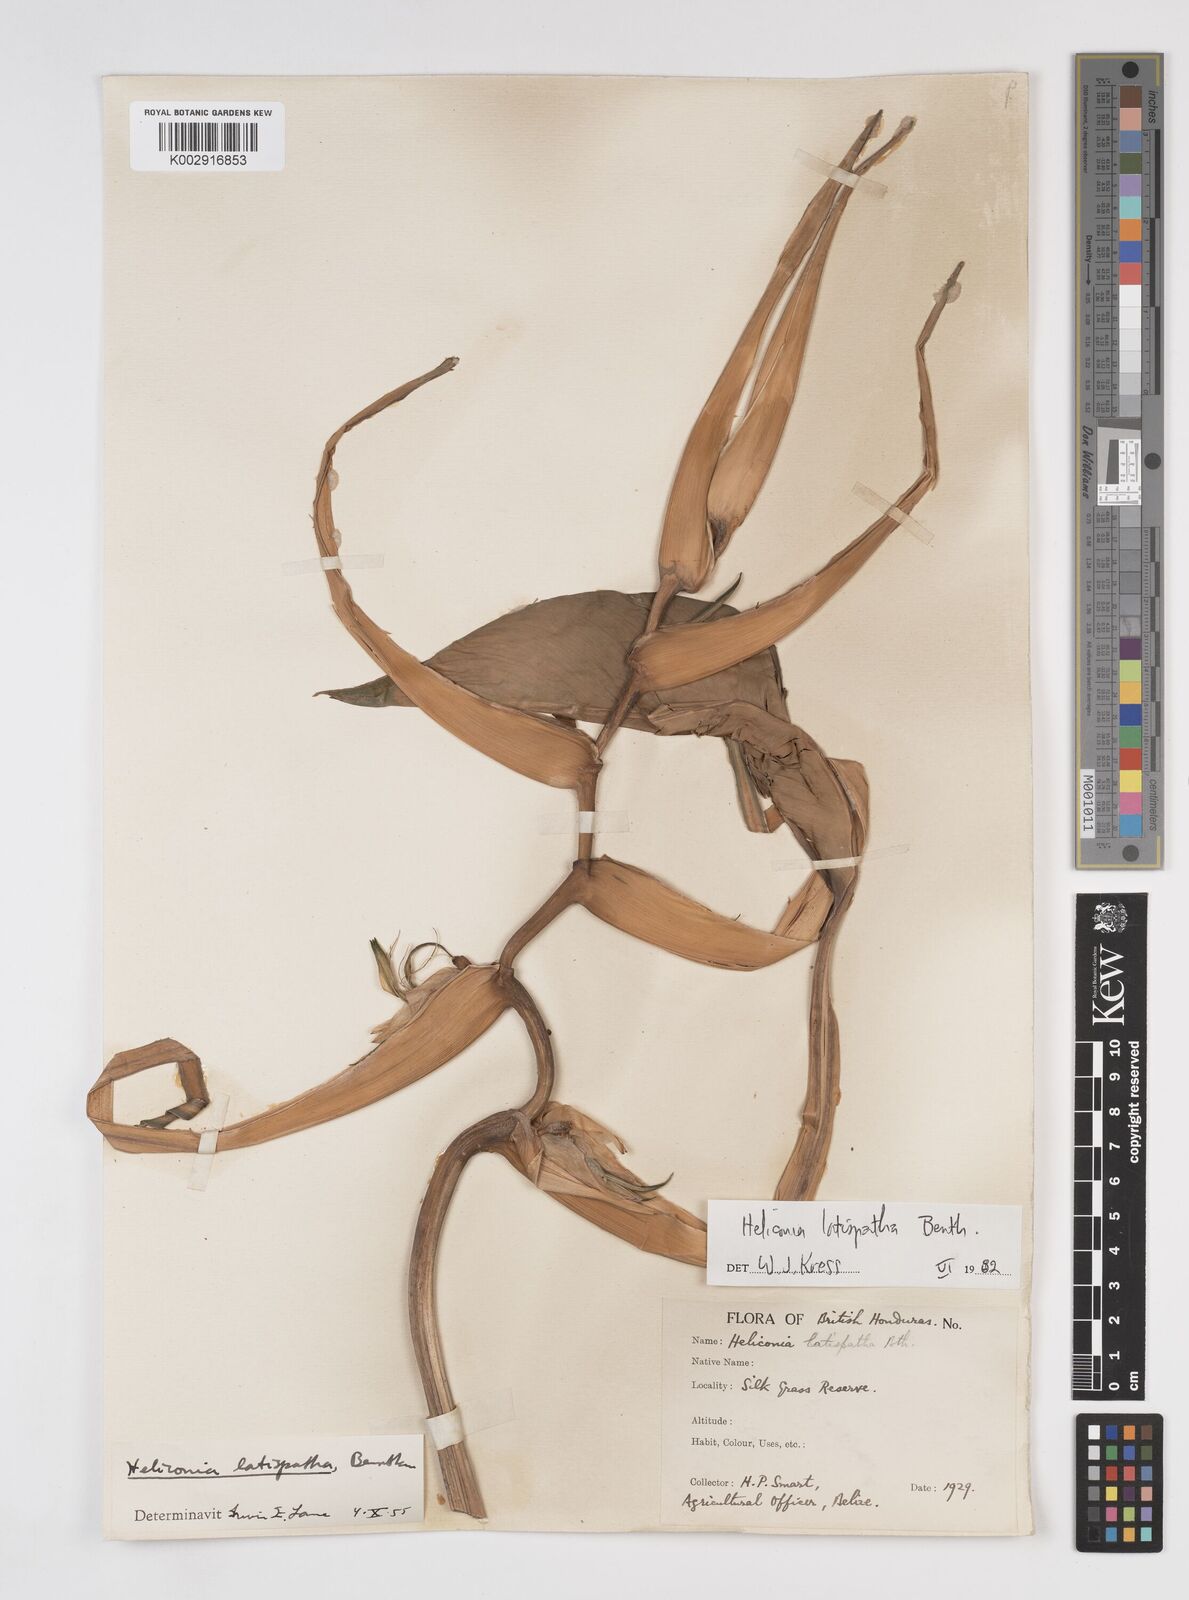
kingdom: Plantae
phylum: Tracheophyta
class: Liliopsida
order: Zingiberales
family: Heliconiaceae
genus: Heliconia
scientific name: Heliconia latispatha
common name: Expanded lobsterclaw
